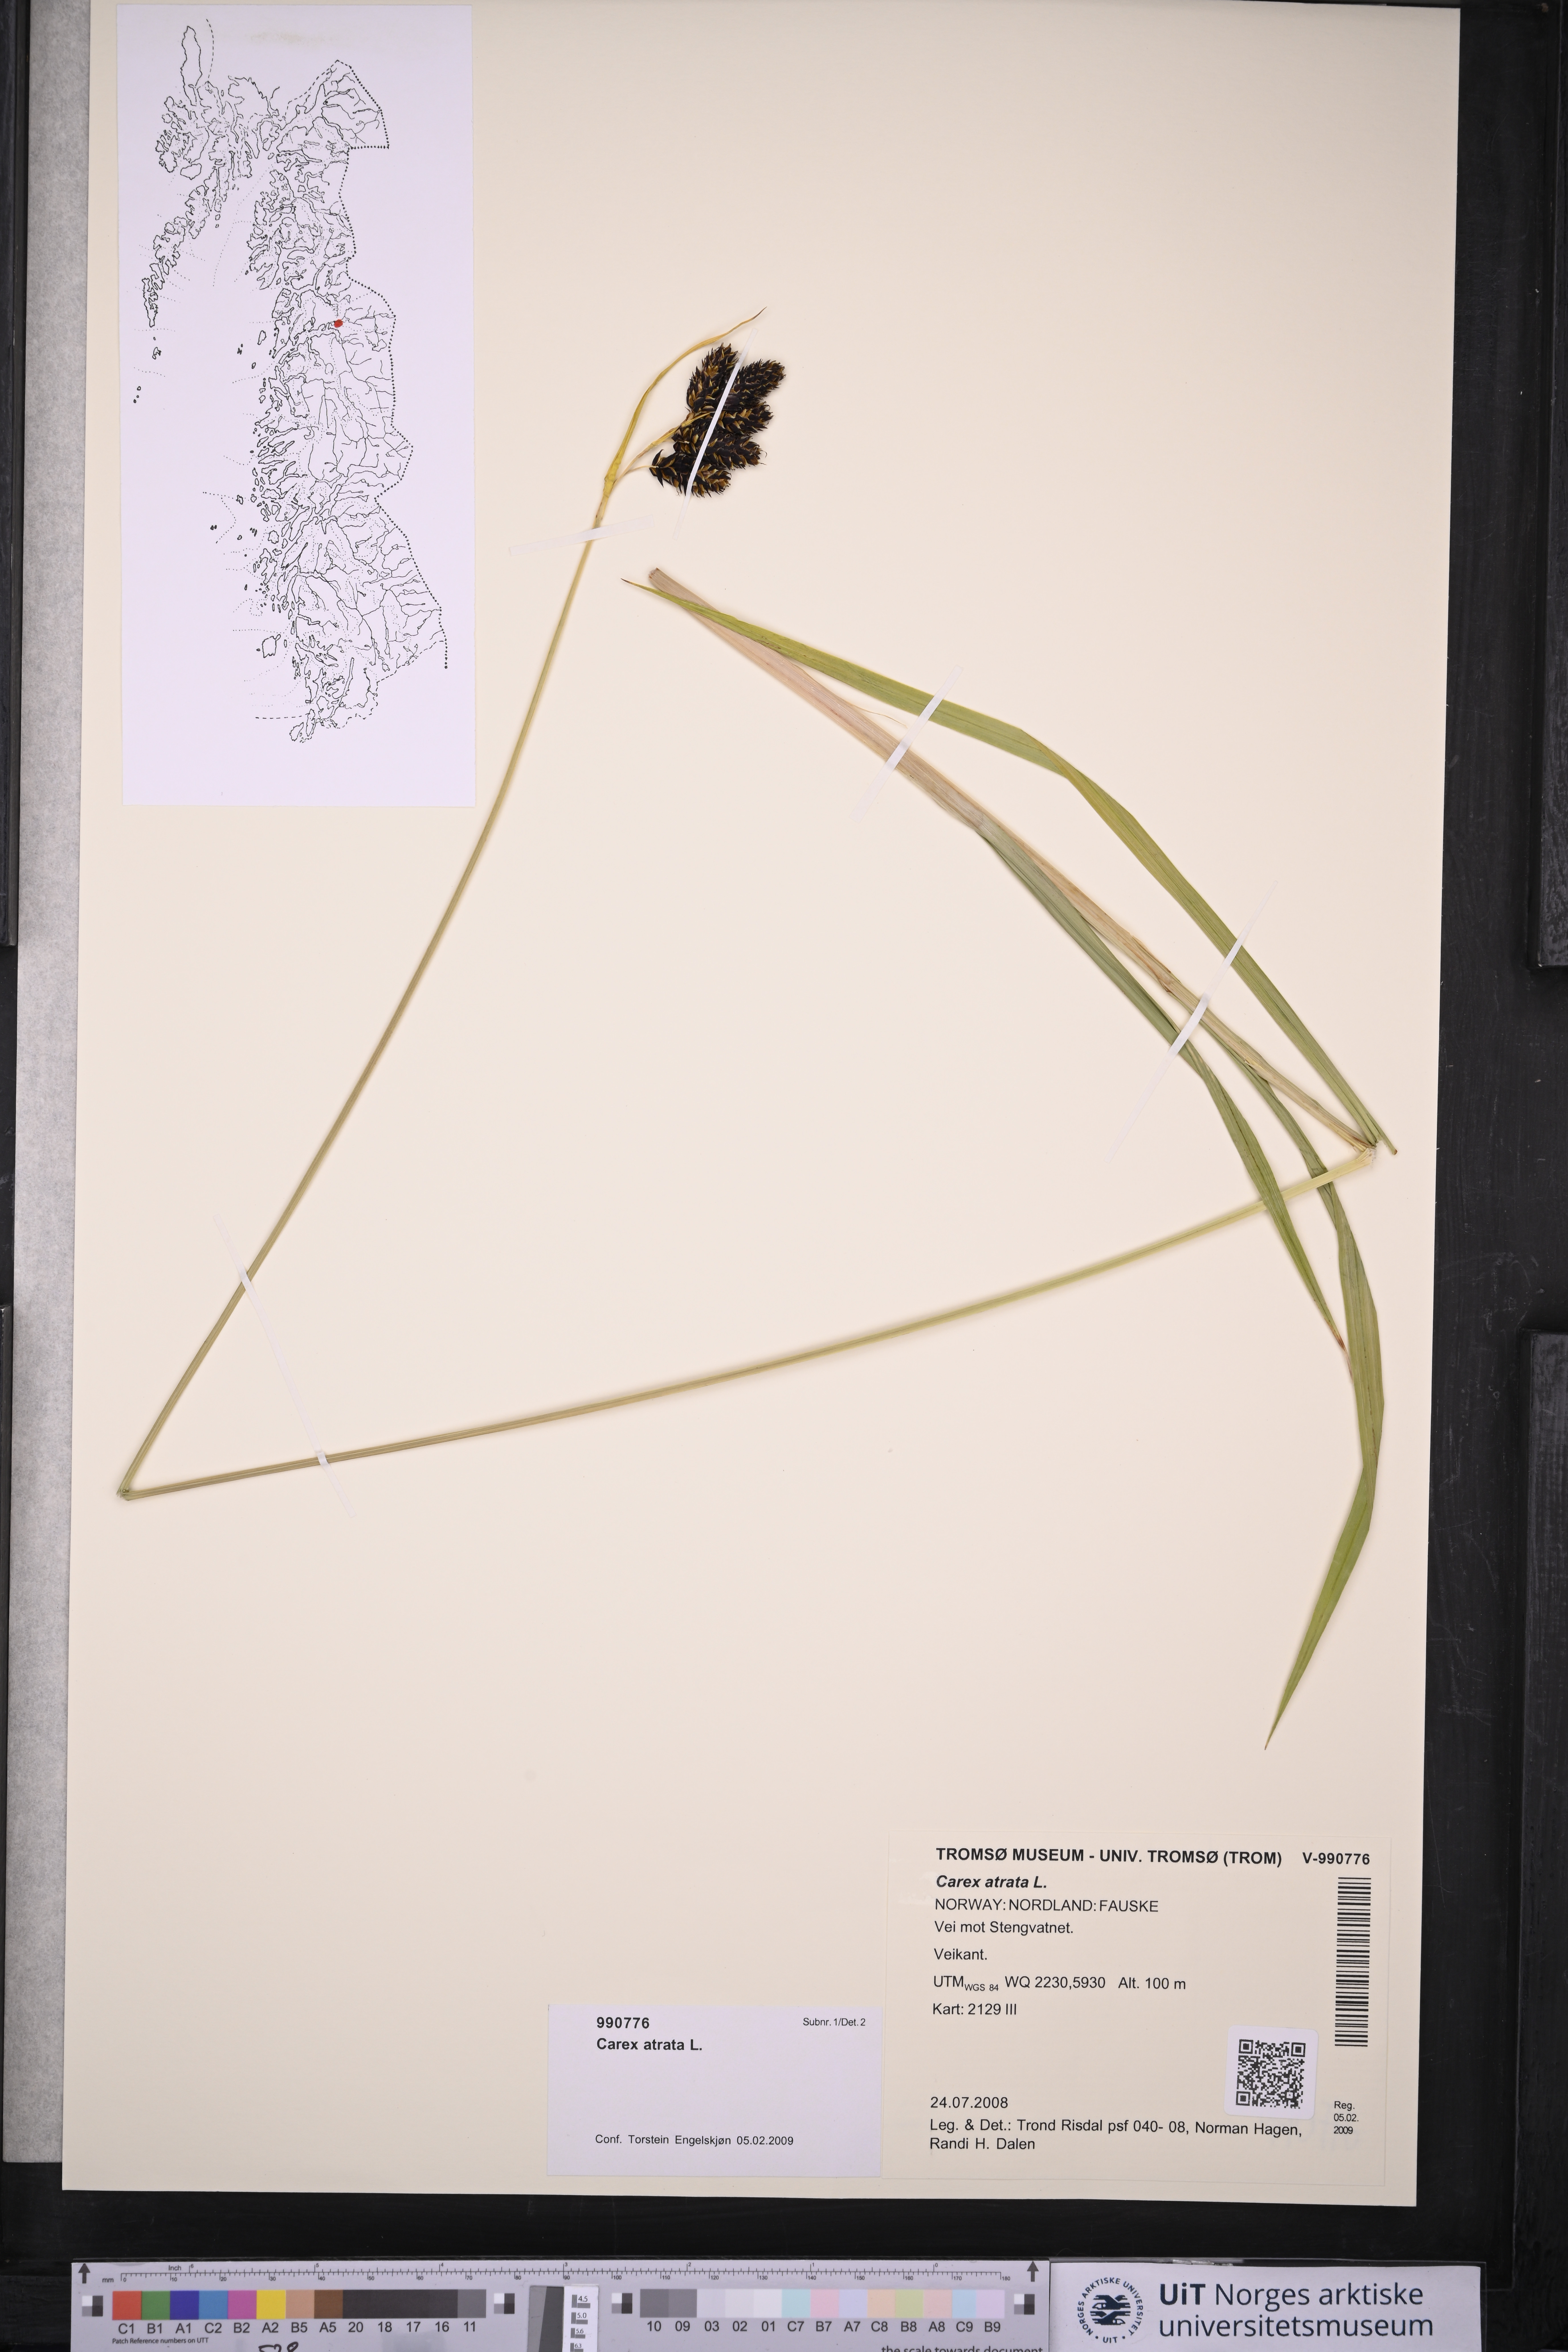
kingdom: Plantae
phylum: Tracheophyta
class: Liliopsida
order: Poales
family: Cyperaceae
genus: Carex
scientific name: Carex atrata
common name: Black alpine sedge
